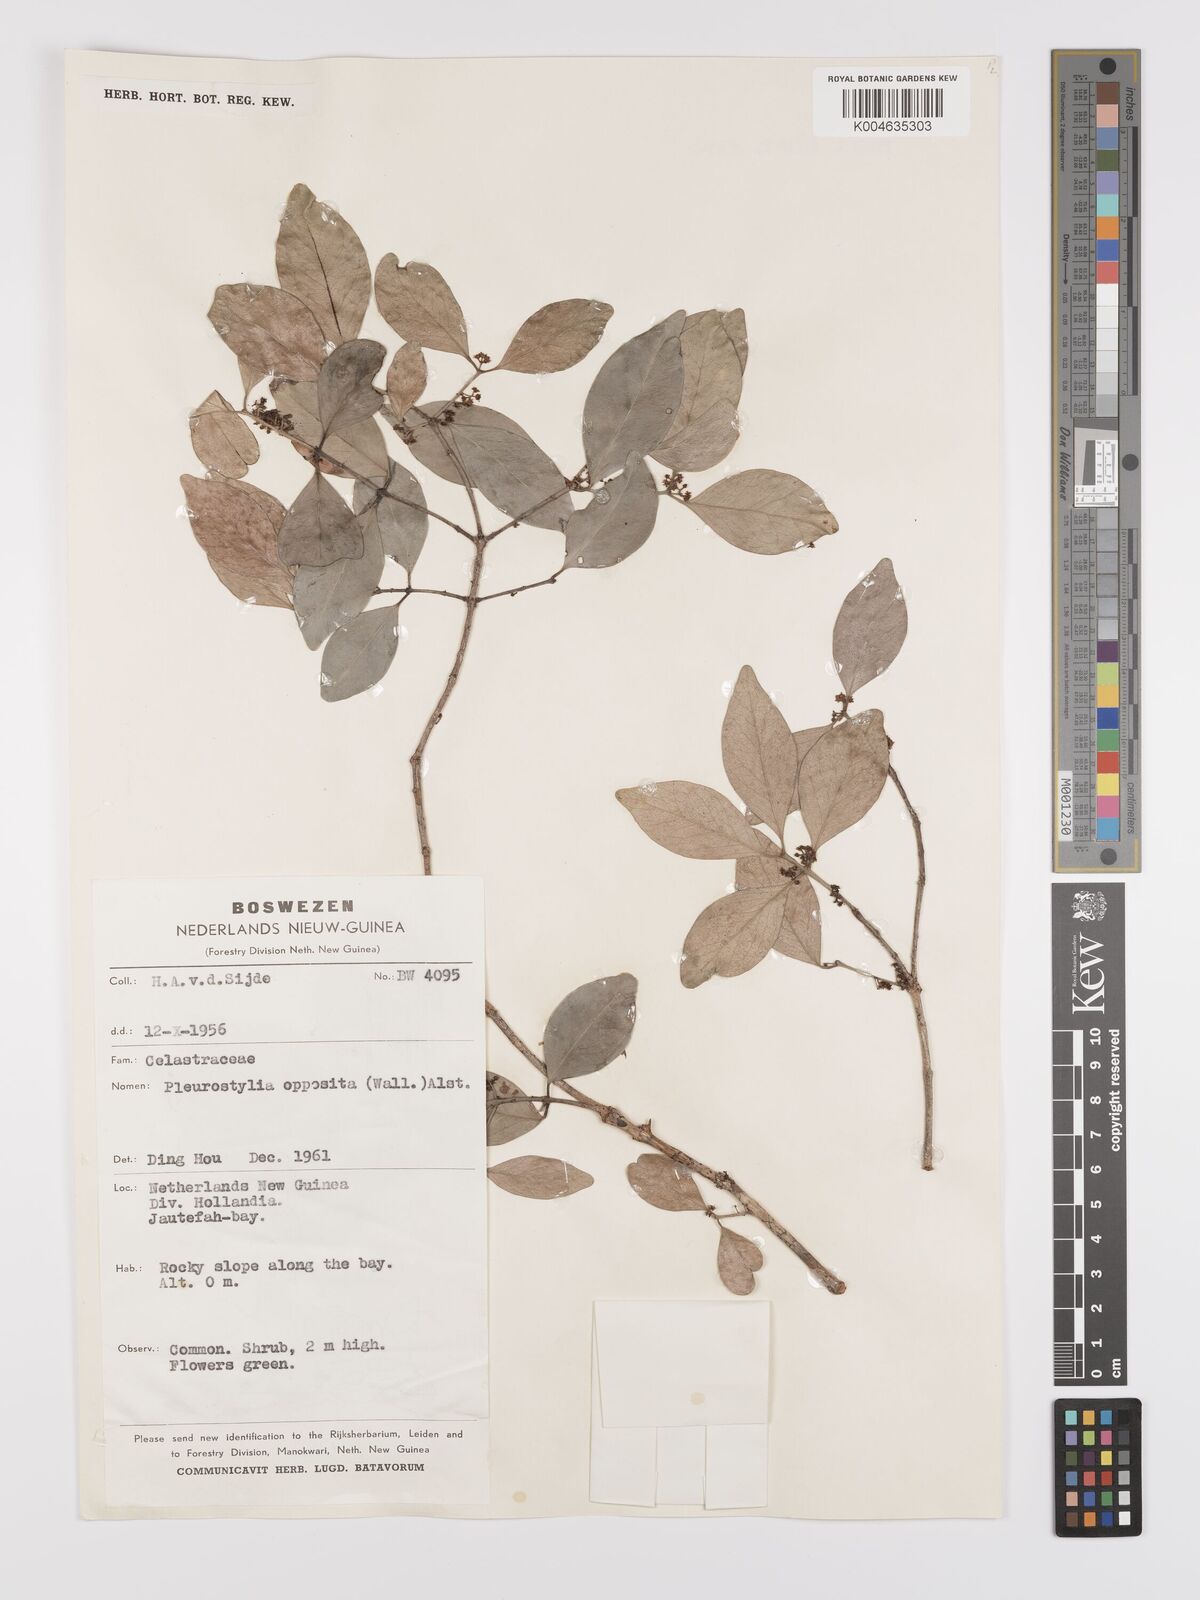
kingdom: Plantae
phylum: Tracheophyta
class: Magnoliopsida
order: Celastrales
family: Celastraceae
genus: Pleurostylia
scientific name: Pleurostylia opposita
